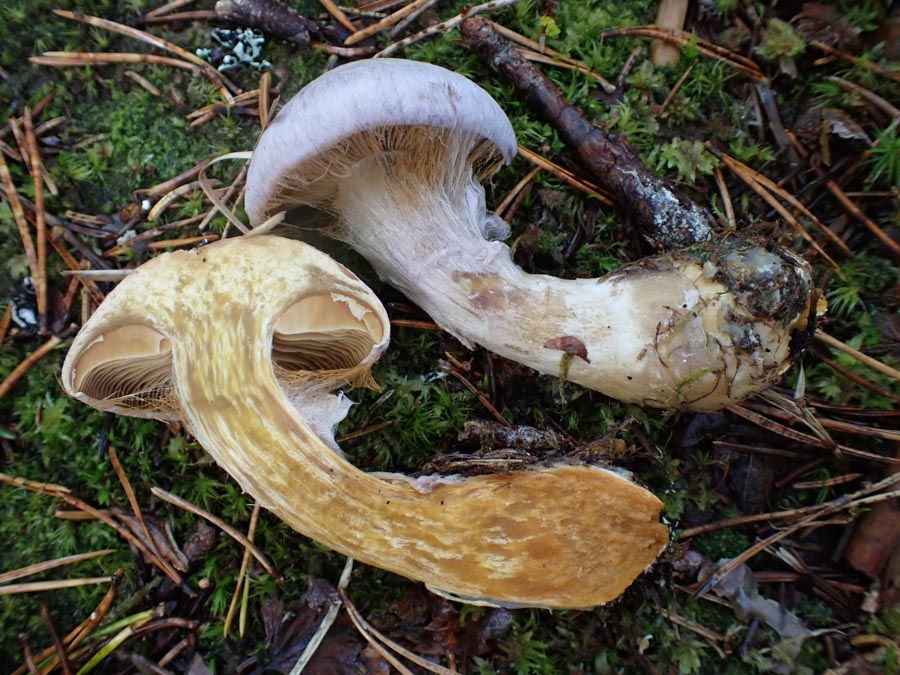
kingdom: Fungi
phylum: Basidiomycota
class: Agaricomycetes
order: Agaricales
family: Cortinariaceae
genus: Cortinarius
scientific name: Cortinarius traganus
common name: safrankødet slørhat
